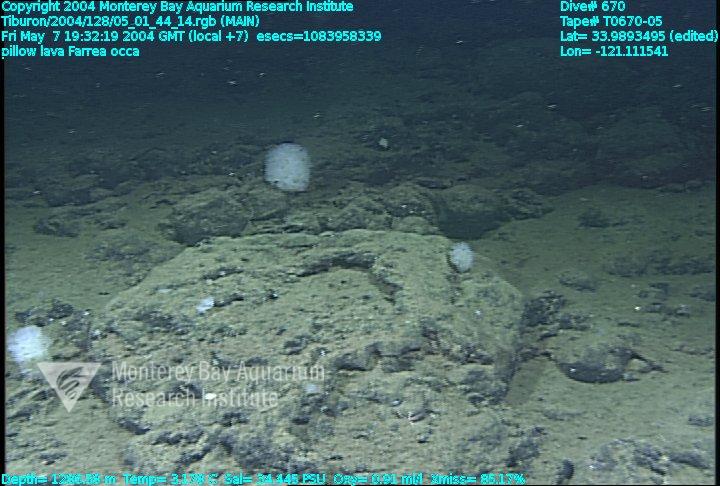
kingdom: Animalia
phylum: Porifera
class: Hexactinellida
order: Sceptrulophora
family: Farreidae
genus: Farrea
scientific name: Farrea occa
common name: Reversed glass sponge
